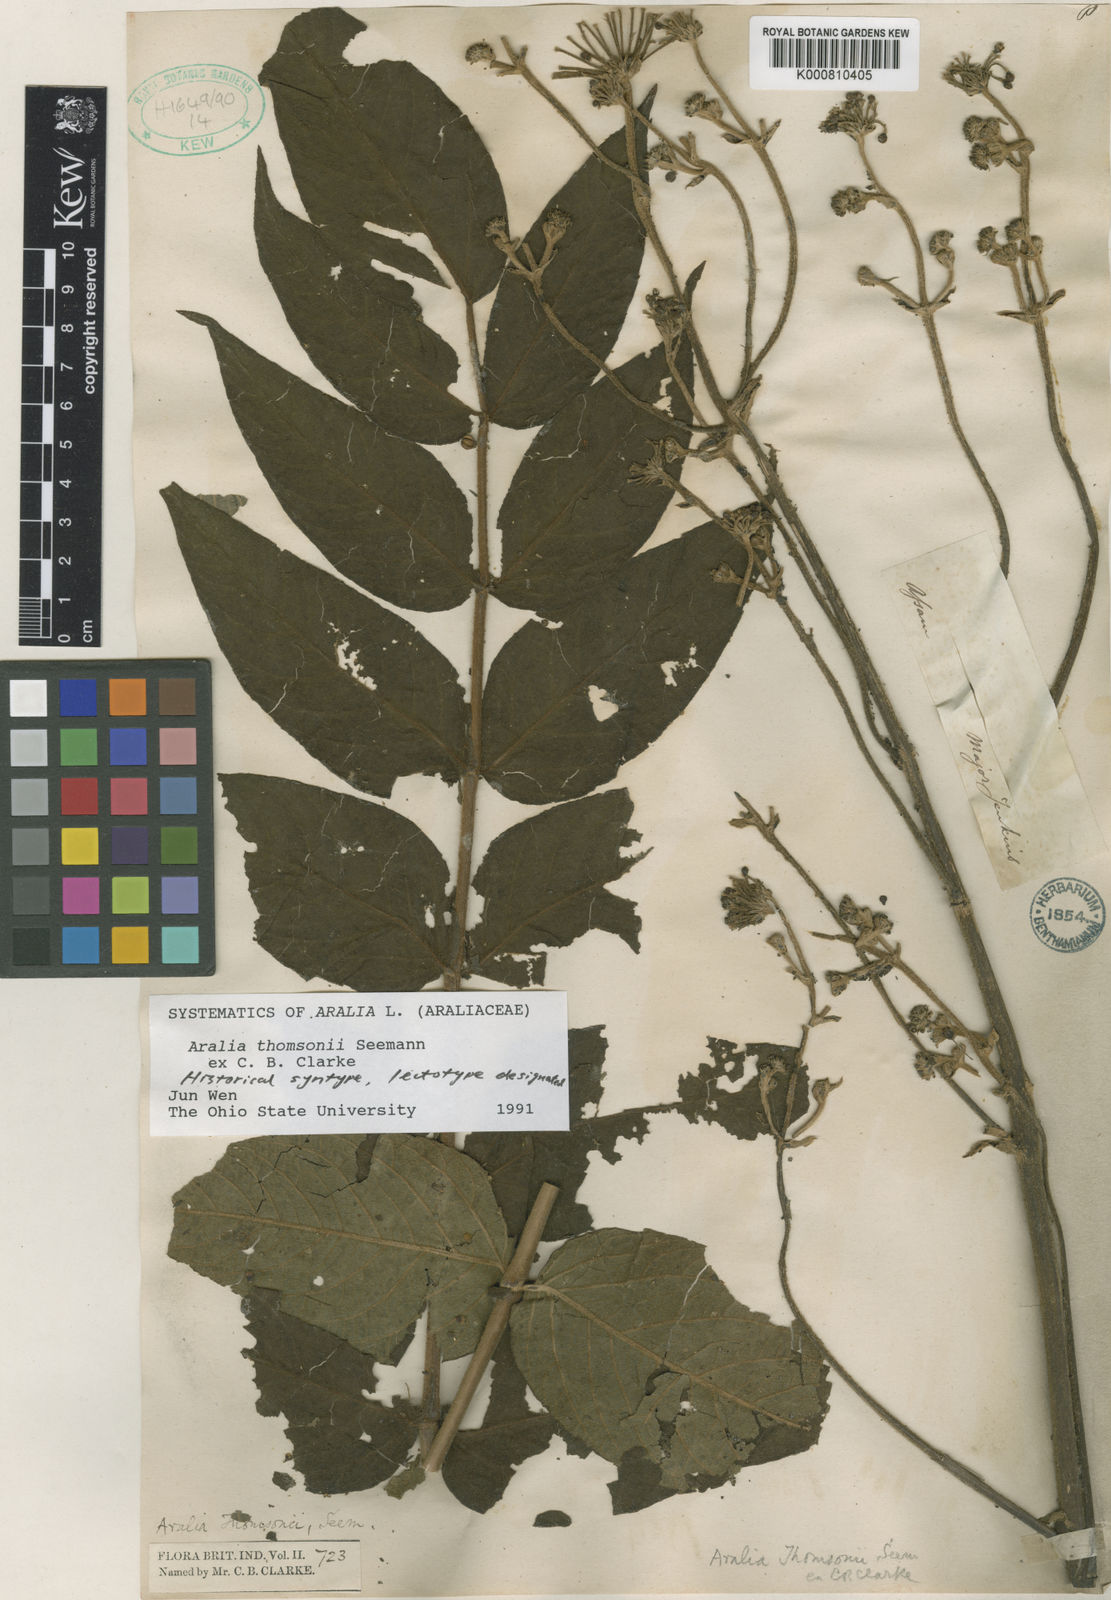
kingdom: Plantae
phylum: Tracheophyta
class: Magnoliopsida
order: Apiales
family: Araliaceae
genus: Aralia
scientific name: Aralia thomsonii
